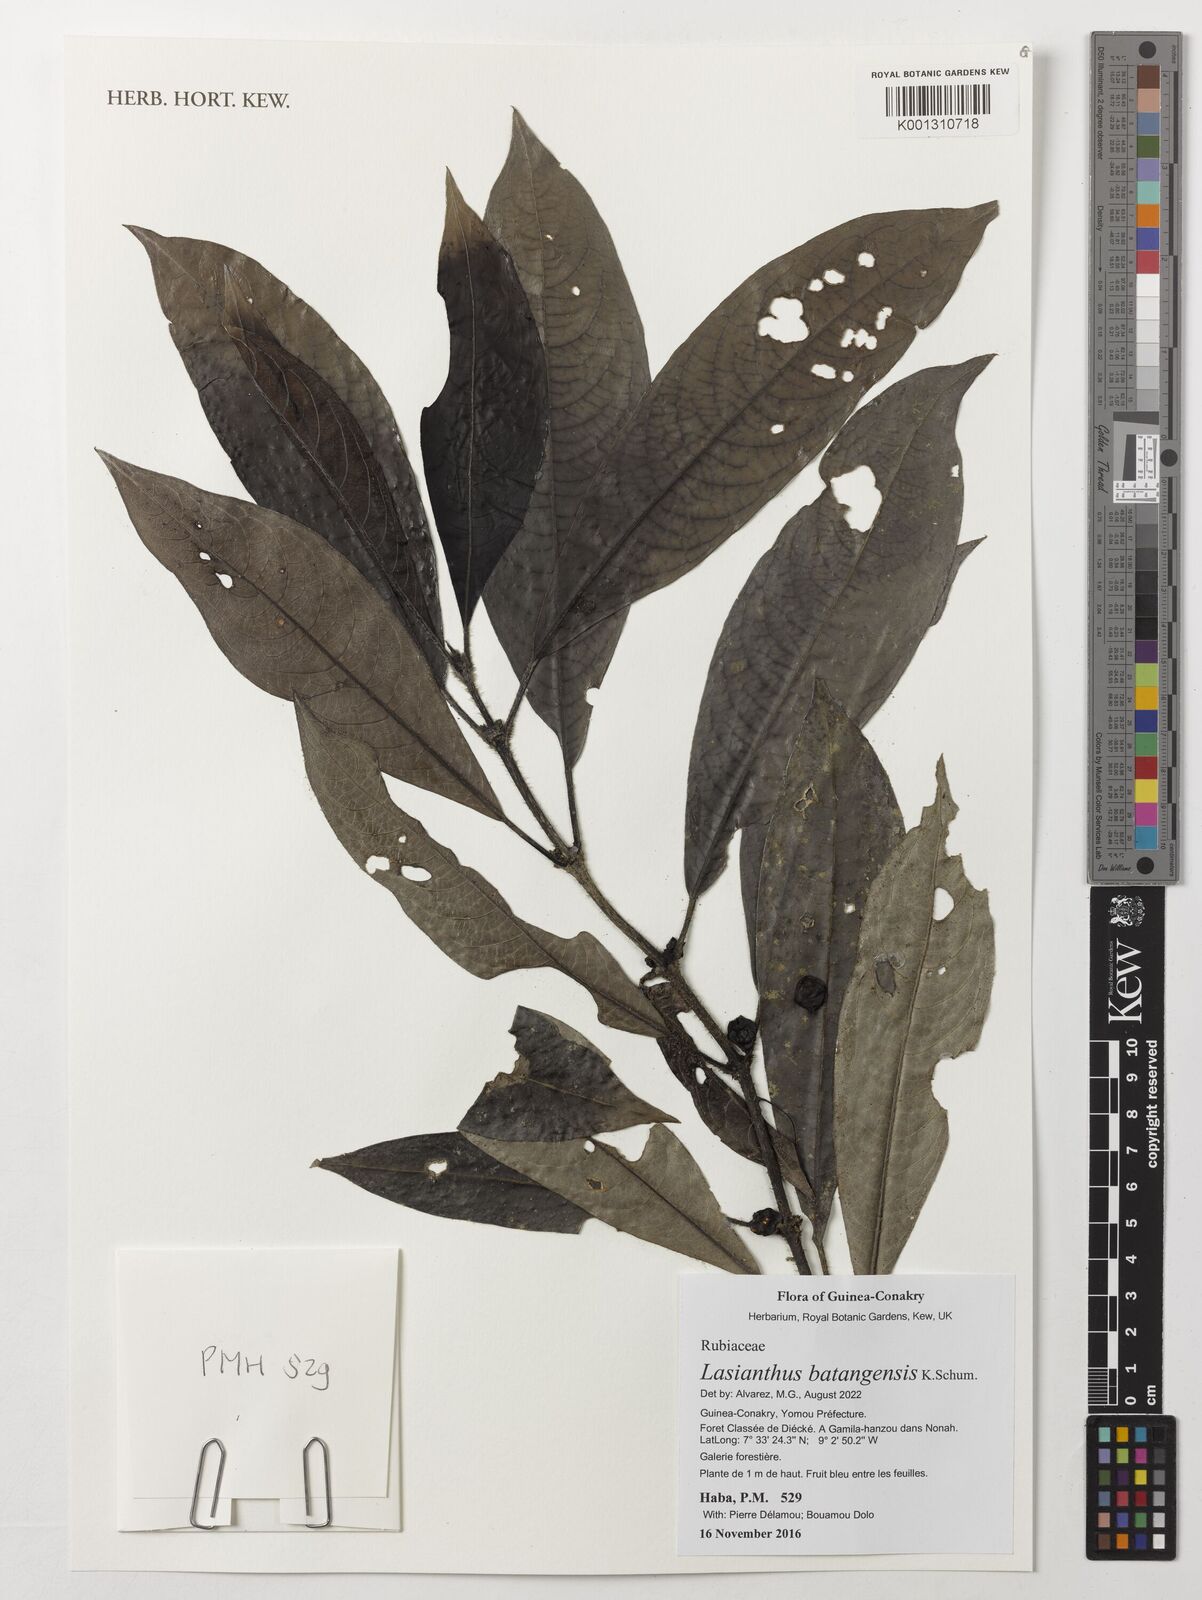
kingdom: Plantae
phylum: Tracheophyta
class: Magnoliopsida
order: Gentianales
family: Rubiaceae
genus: Lasianthus
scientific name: Lasianthus batangensis
